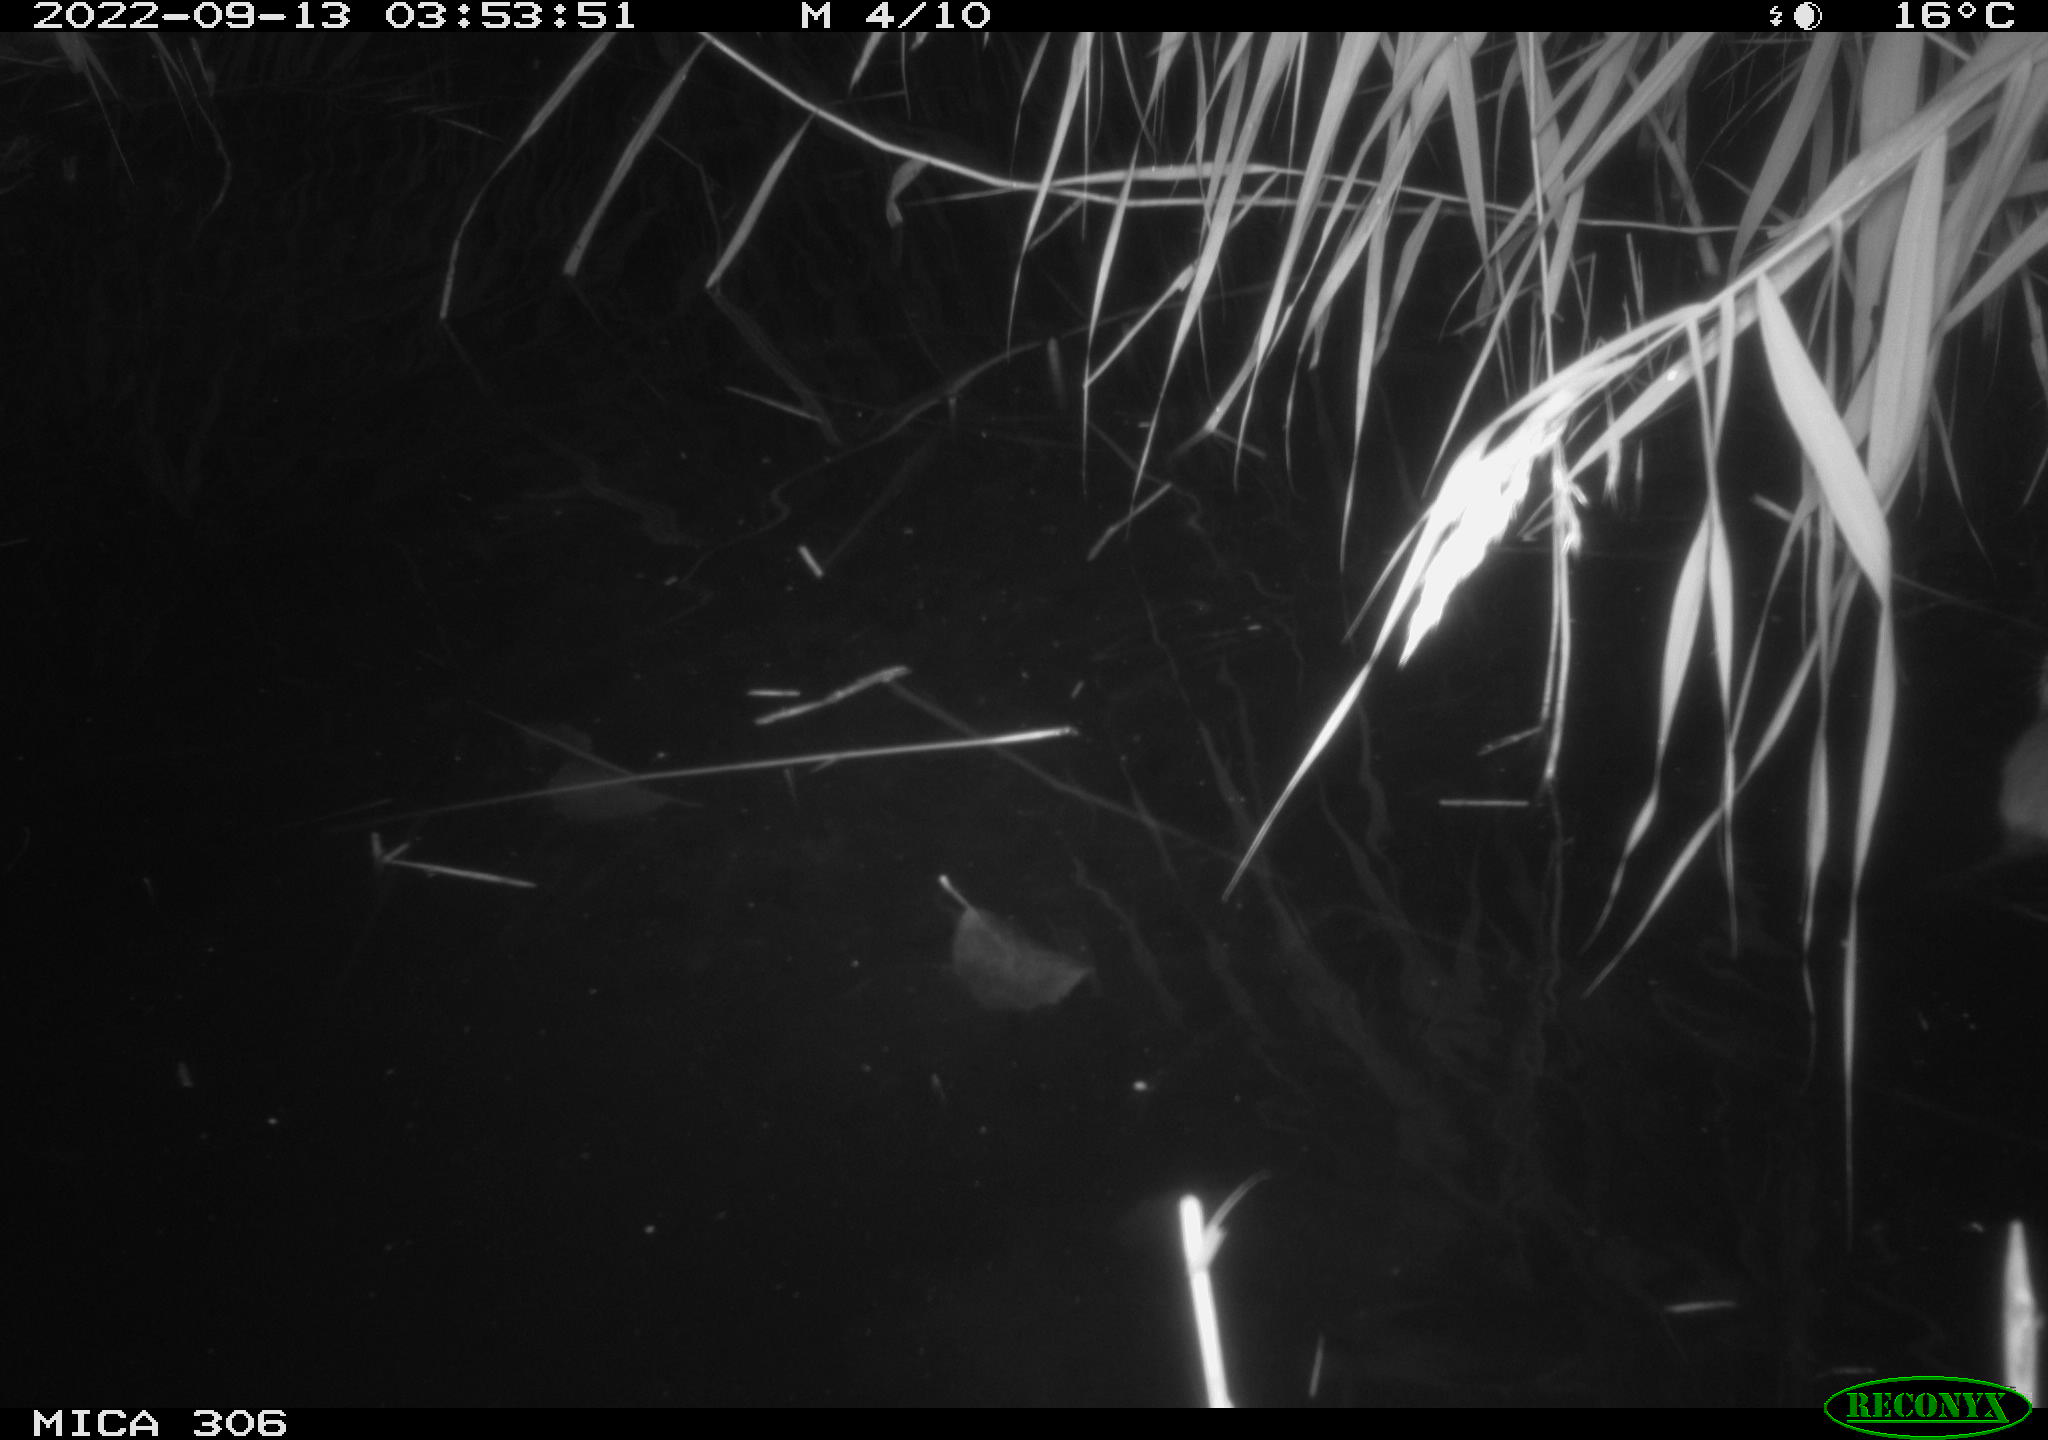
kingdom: Animalia
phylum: Chordata
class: Mammalia
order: Rodentia
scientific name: Rodentia
